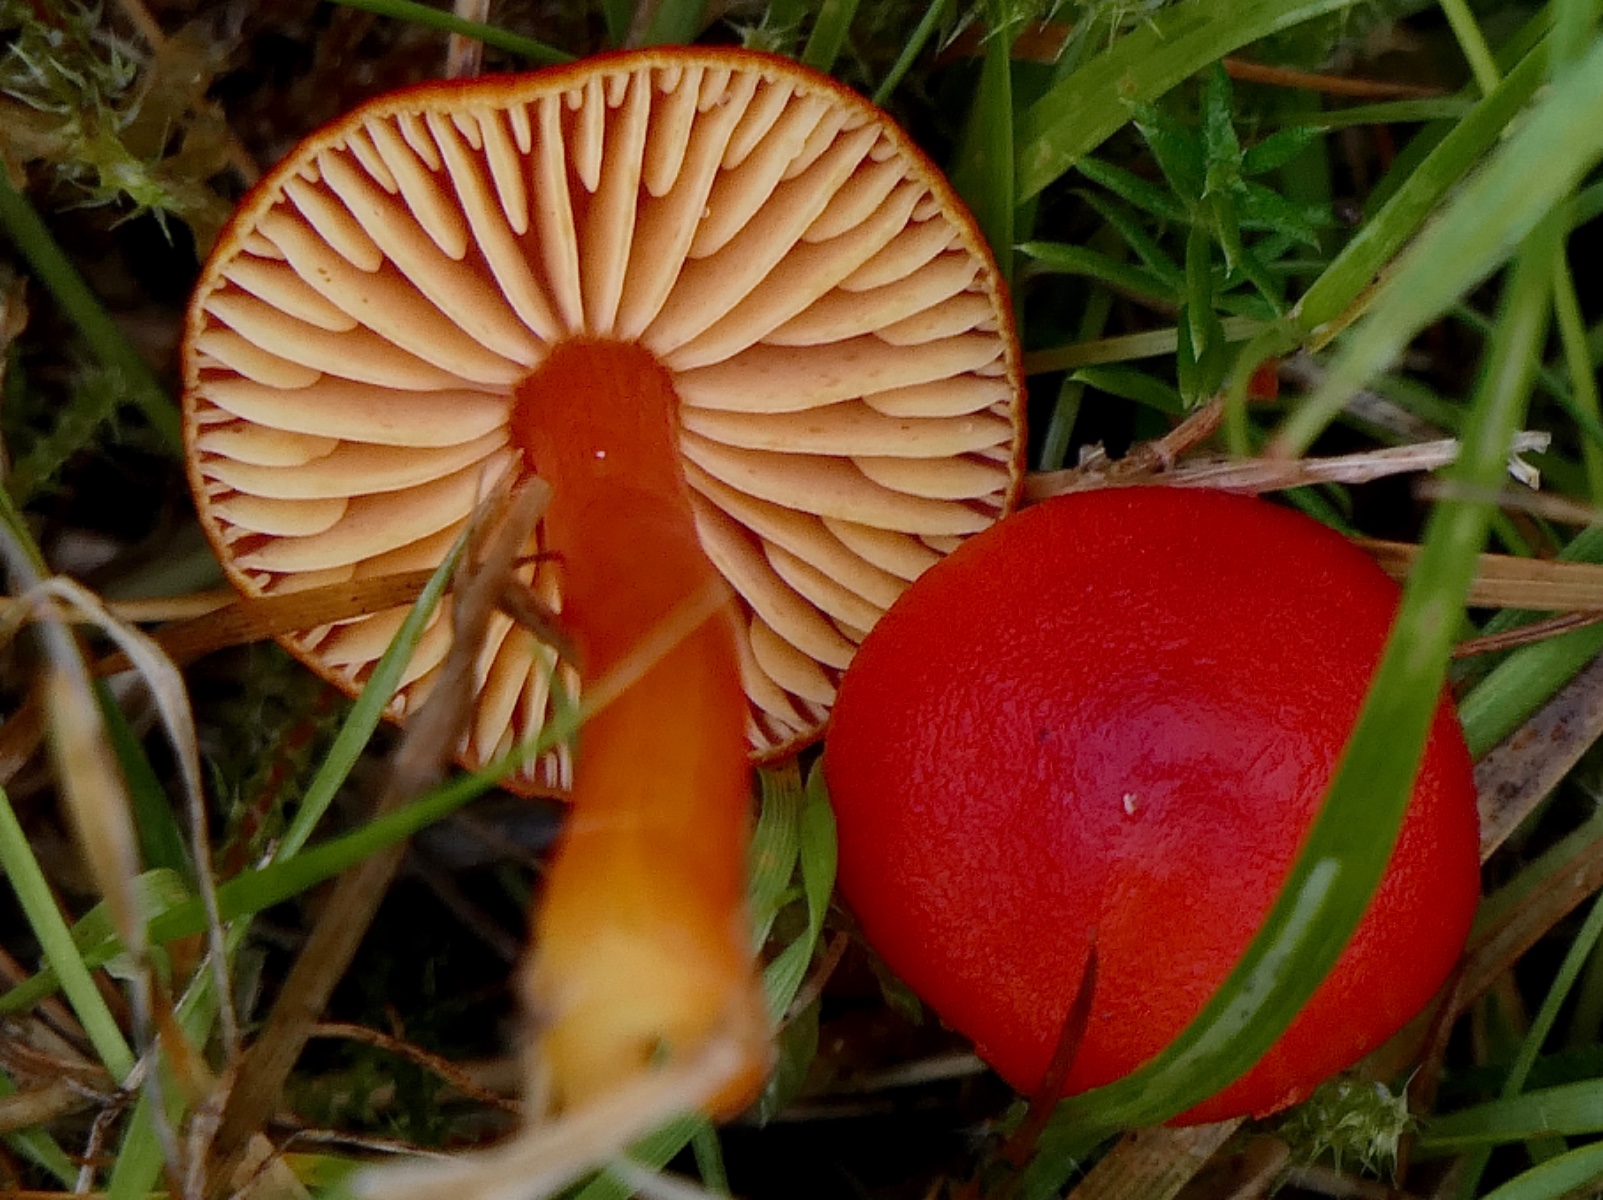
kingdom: Fungi
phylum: Basidiomycota
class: Agaricomycetes
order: Agaricales
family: Hygrophoraceae
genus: Hygrocybe
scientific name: Hygrocybe miniata
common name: mønje-vokshat
